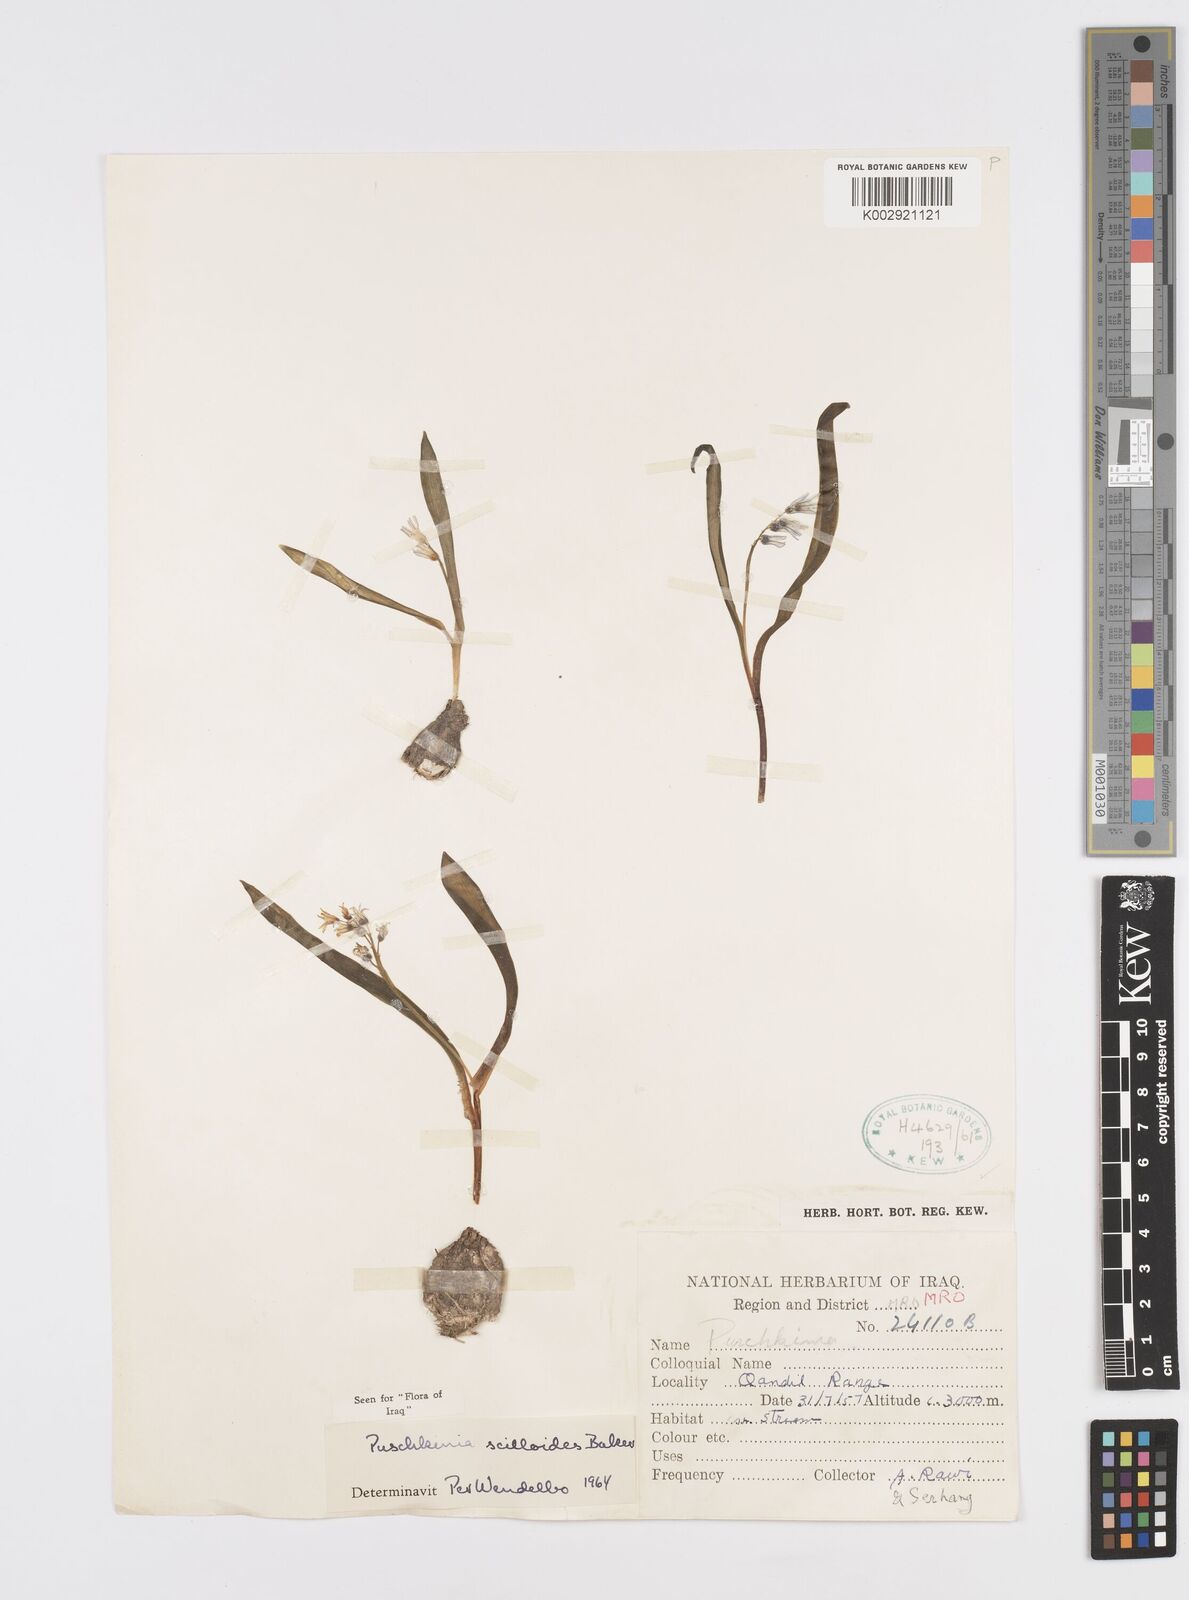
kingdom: Plantae
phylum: Tracheophyta
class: Liliopsida
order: Asparagales
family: Asparagaceae
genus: Puschkinia
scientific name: Puschkinia scilloides
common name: Striped squill
